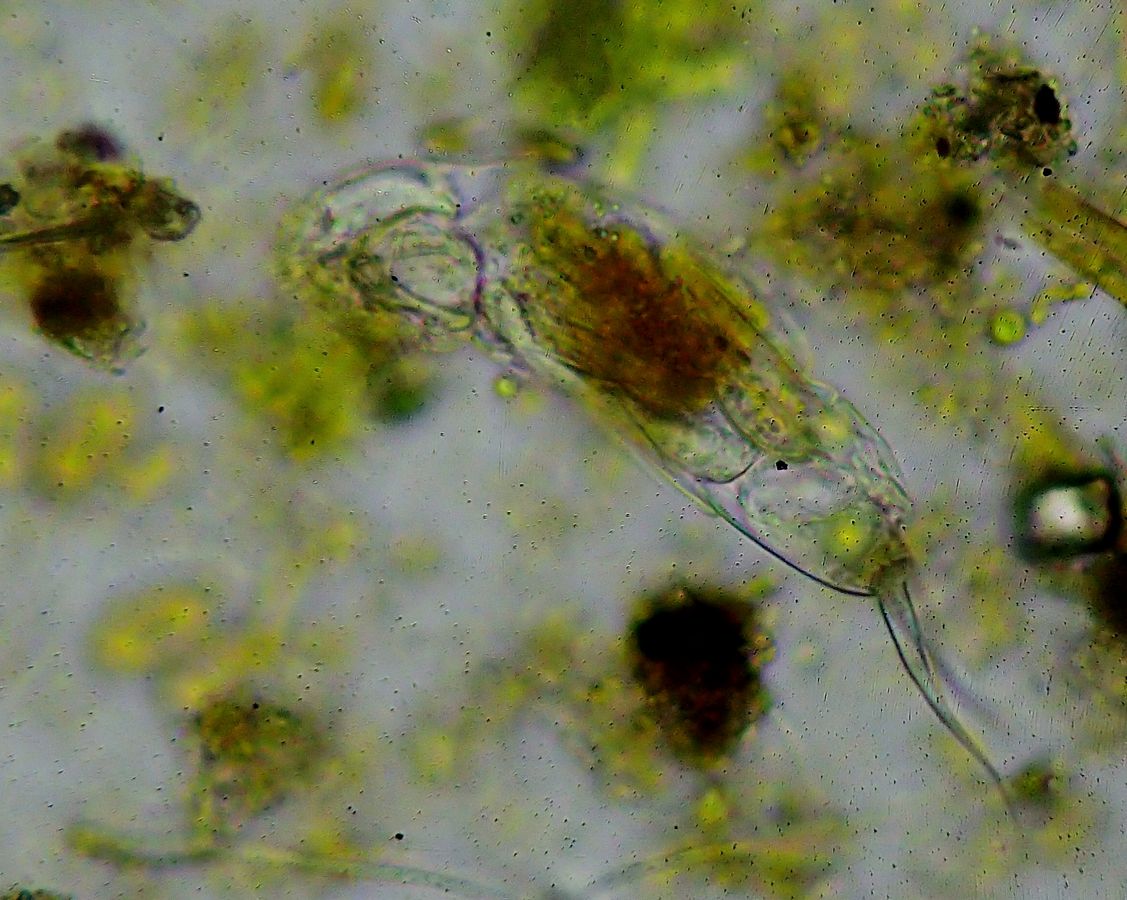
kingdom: Animalia
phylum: Rotifera
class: Eurotatoria
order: Ploima
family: Dicranophoridae
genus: Dicranophorus
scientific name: Dicranophorus grandis
